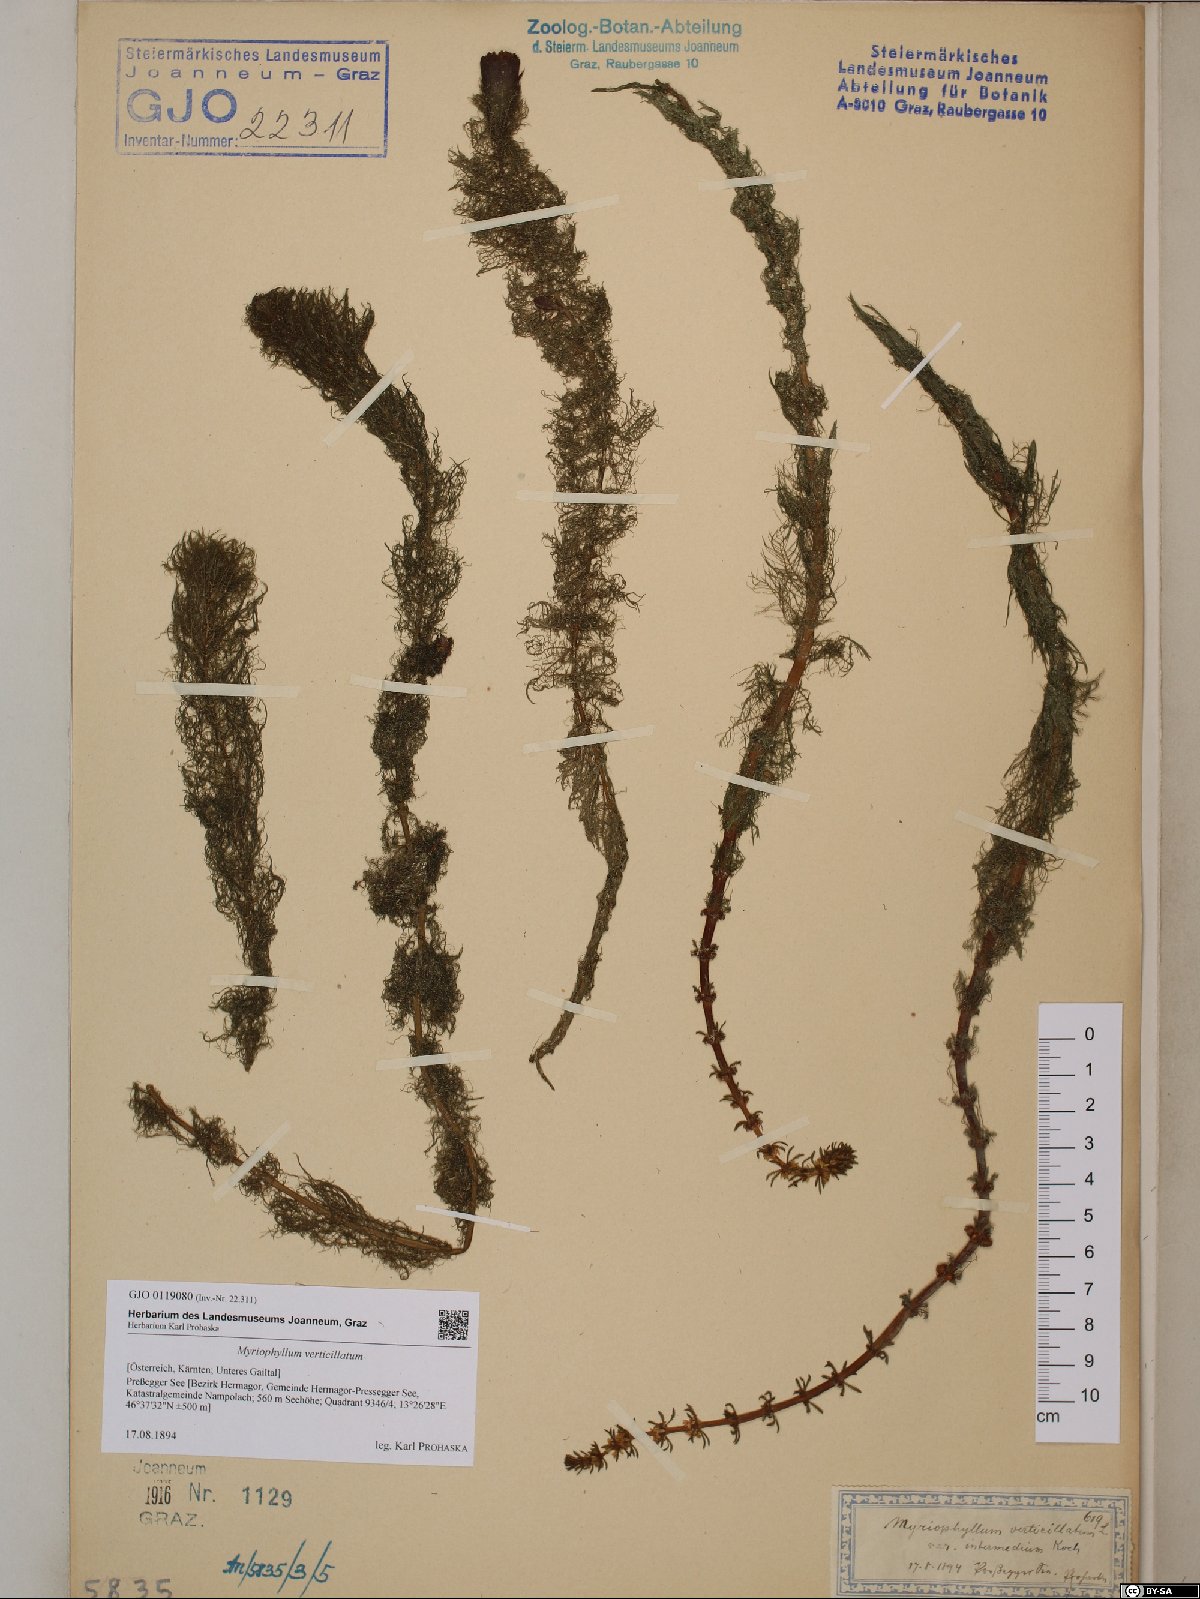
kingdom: Plantae
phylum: Tracheophyta
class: Magnoliopsida
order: Saxifragales
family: Haloragaceae
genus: Myriophyllum
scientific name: Myriophyllum verticillatum
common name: Whorled water-milfoil
